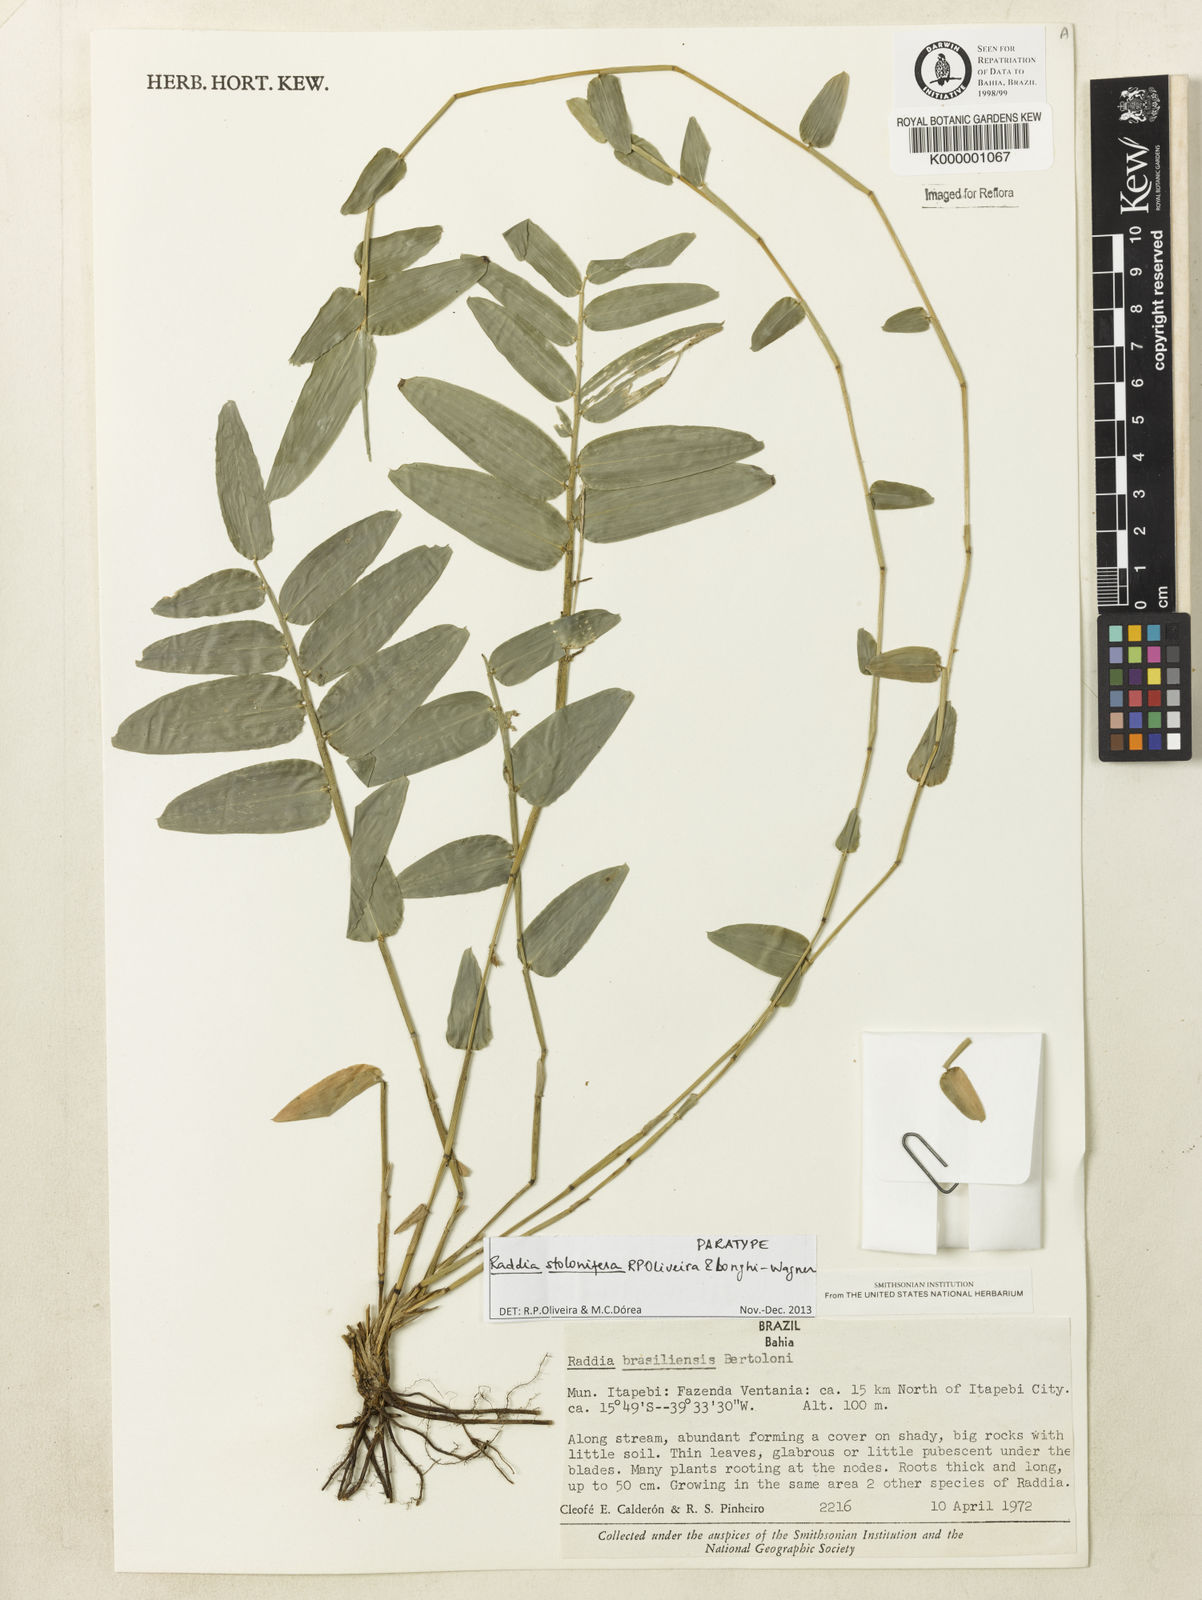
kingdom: Plantae
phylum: Tracheophyta
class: Liliopsida
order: Poales
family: Poaceae
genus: Raddia
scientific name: Raddia brasiliensis
